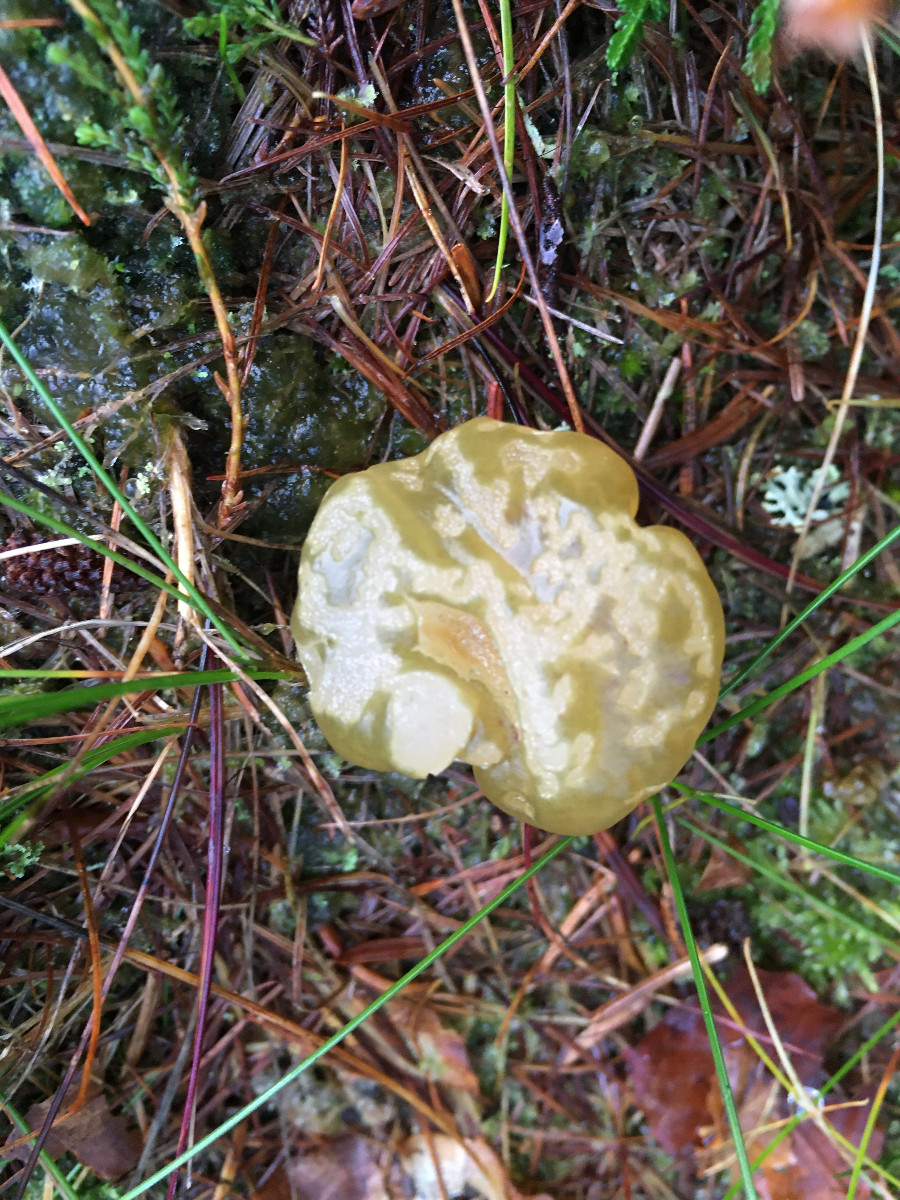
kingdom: Fungi
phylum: Ascomycota
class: Leotiomycetes
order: Leotiales
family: Leotiaceae
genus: Leotia
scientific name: Leotia lubrica
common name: ravsvamp
